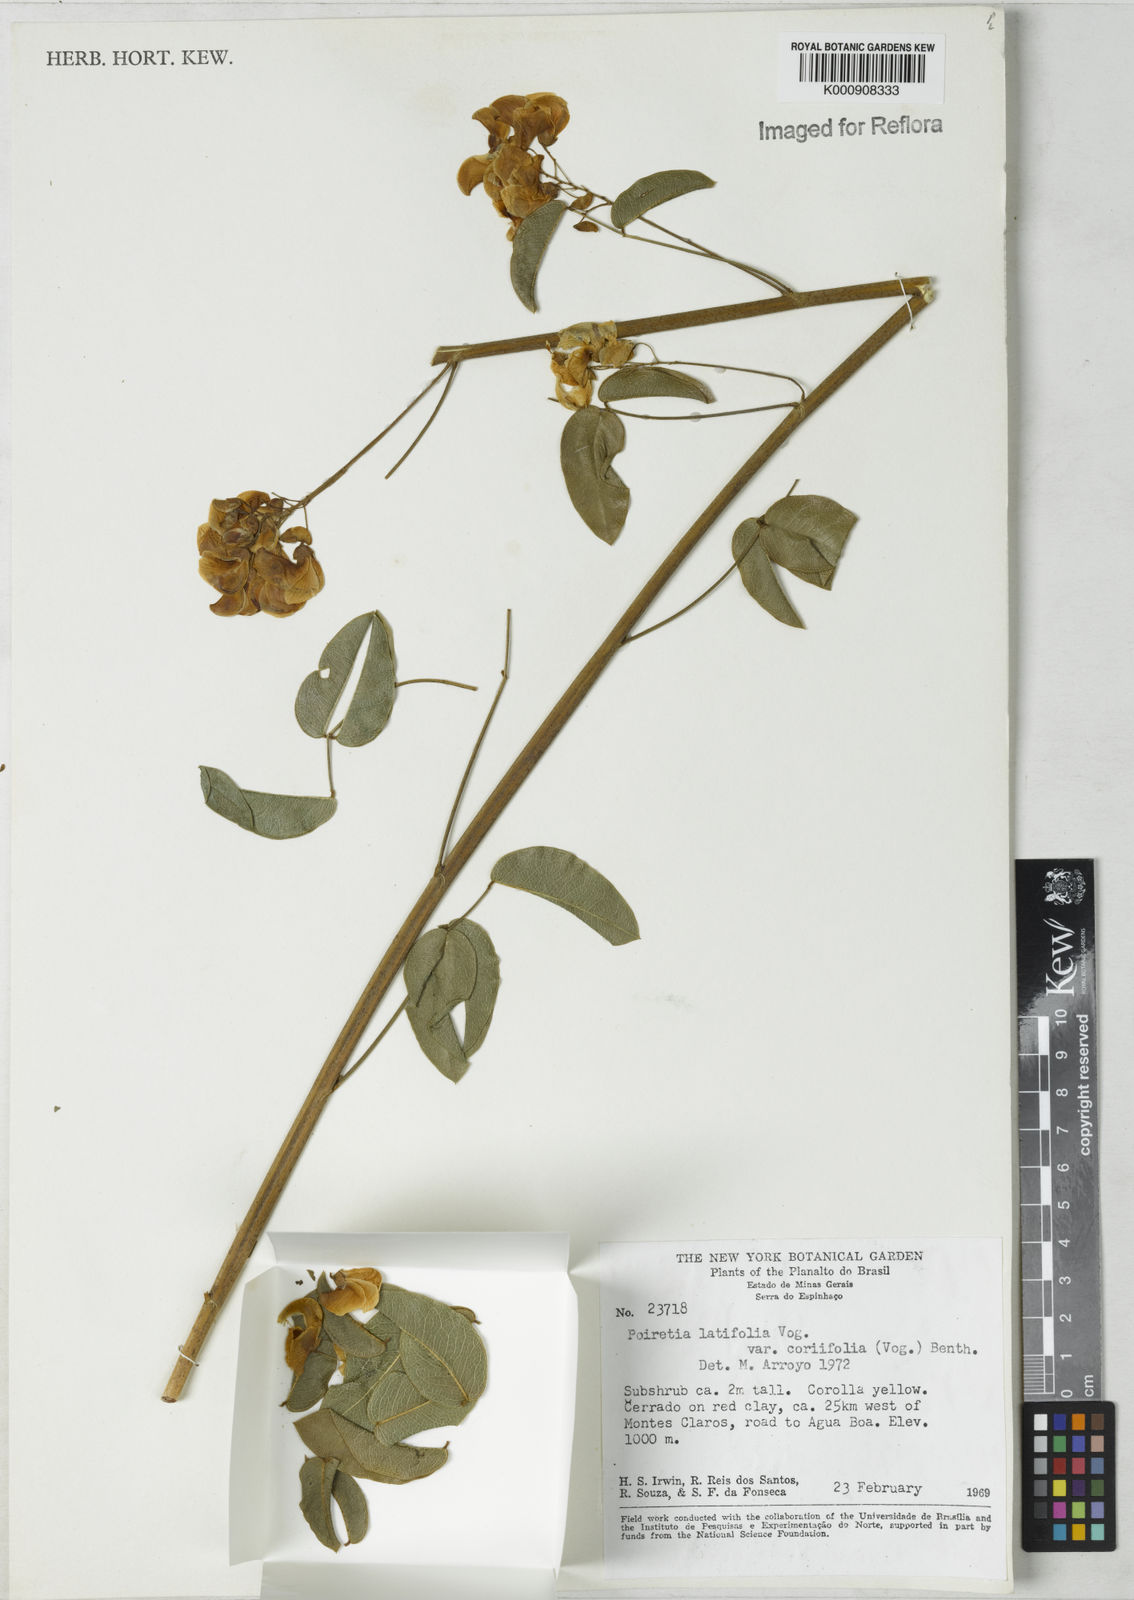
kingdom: Plantae
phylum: Tracheophyta
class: Magnoliopsida
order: Fabales
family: Fabaceae
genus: Poiretia
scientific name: Poiretia coriifolia
